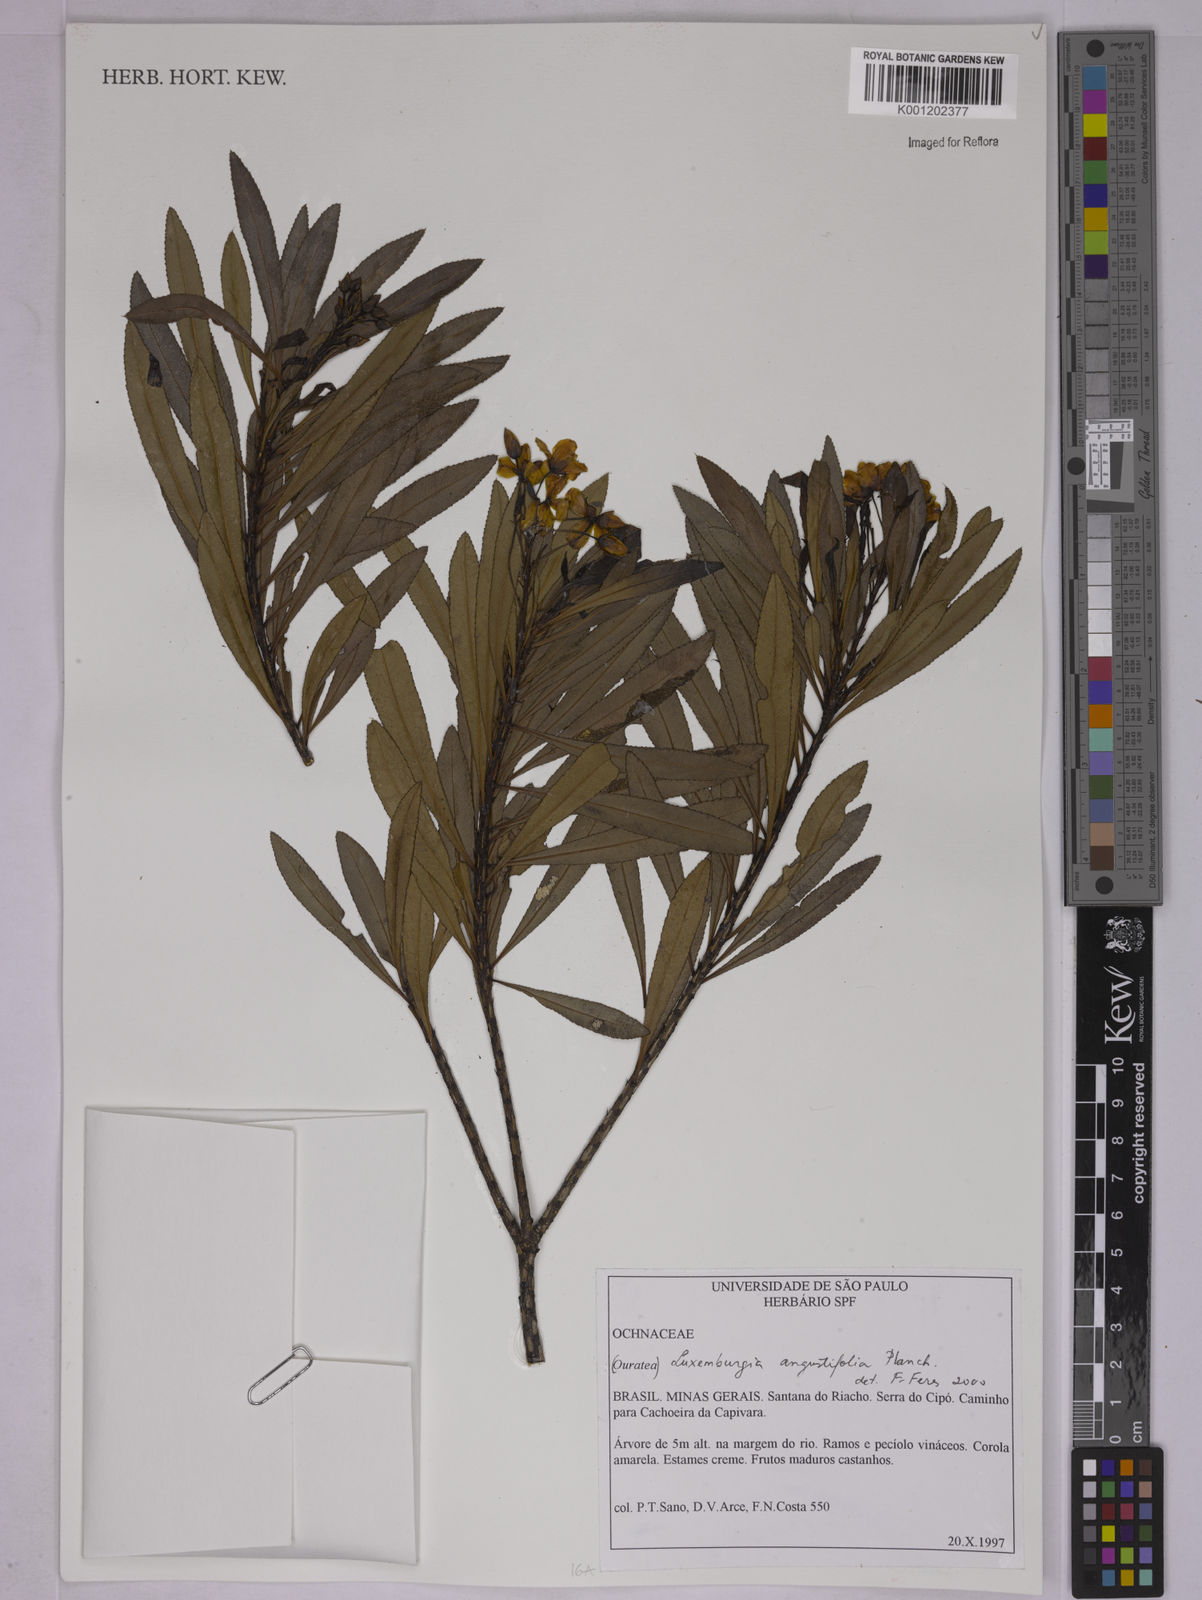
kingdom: Plantae
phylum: Tracheophyta
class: Magnoliopsida
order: Malpighiales
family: Ochnaceae
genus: Luxemburgia
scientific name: Luxemburgia angustifolia
